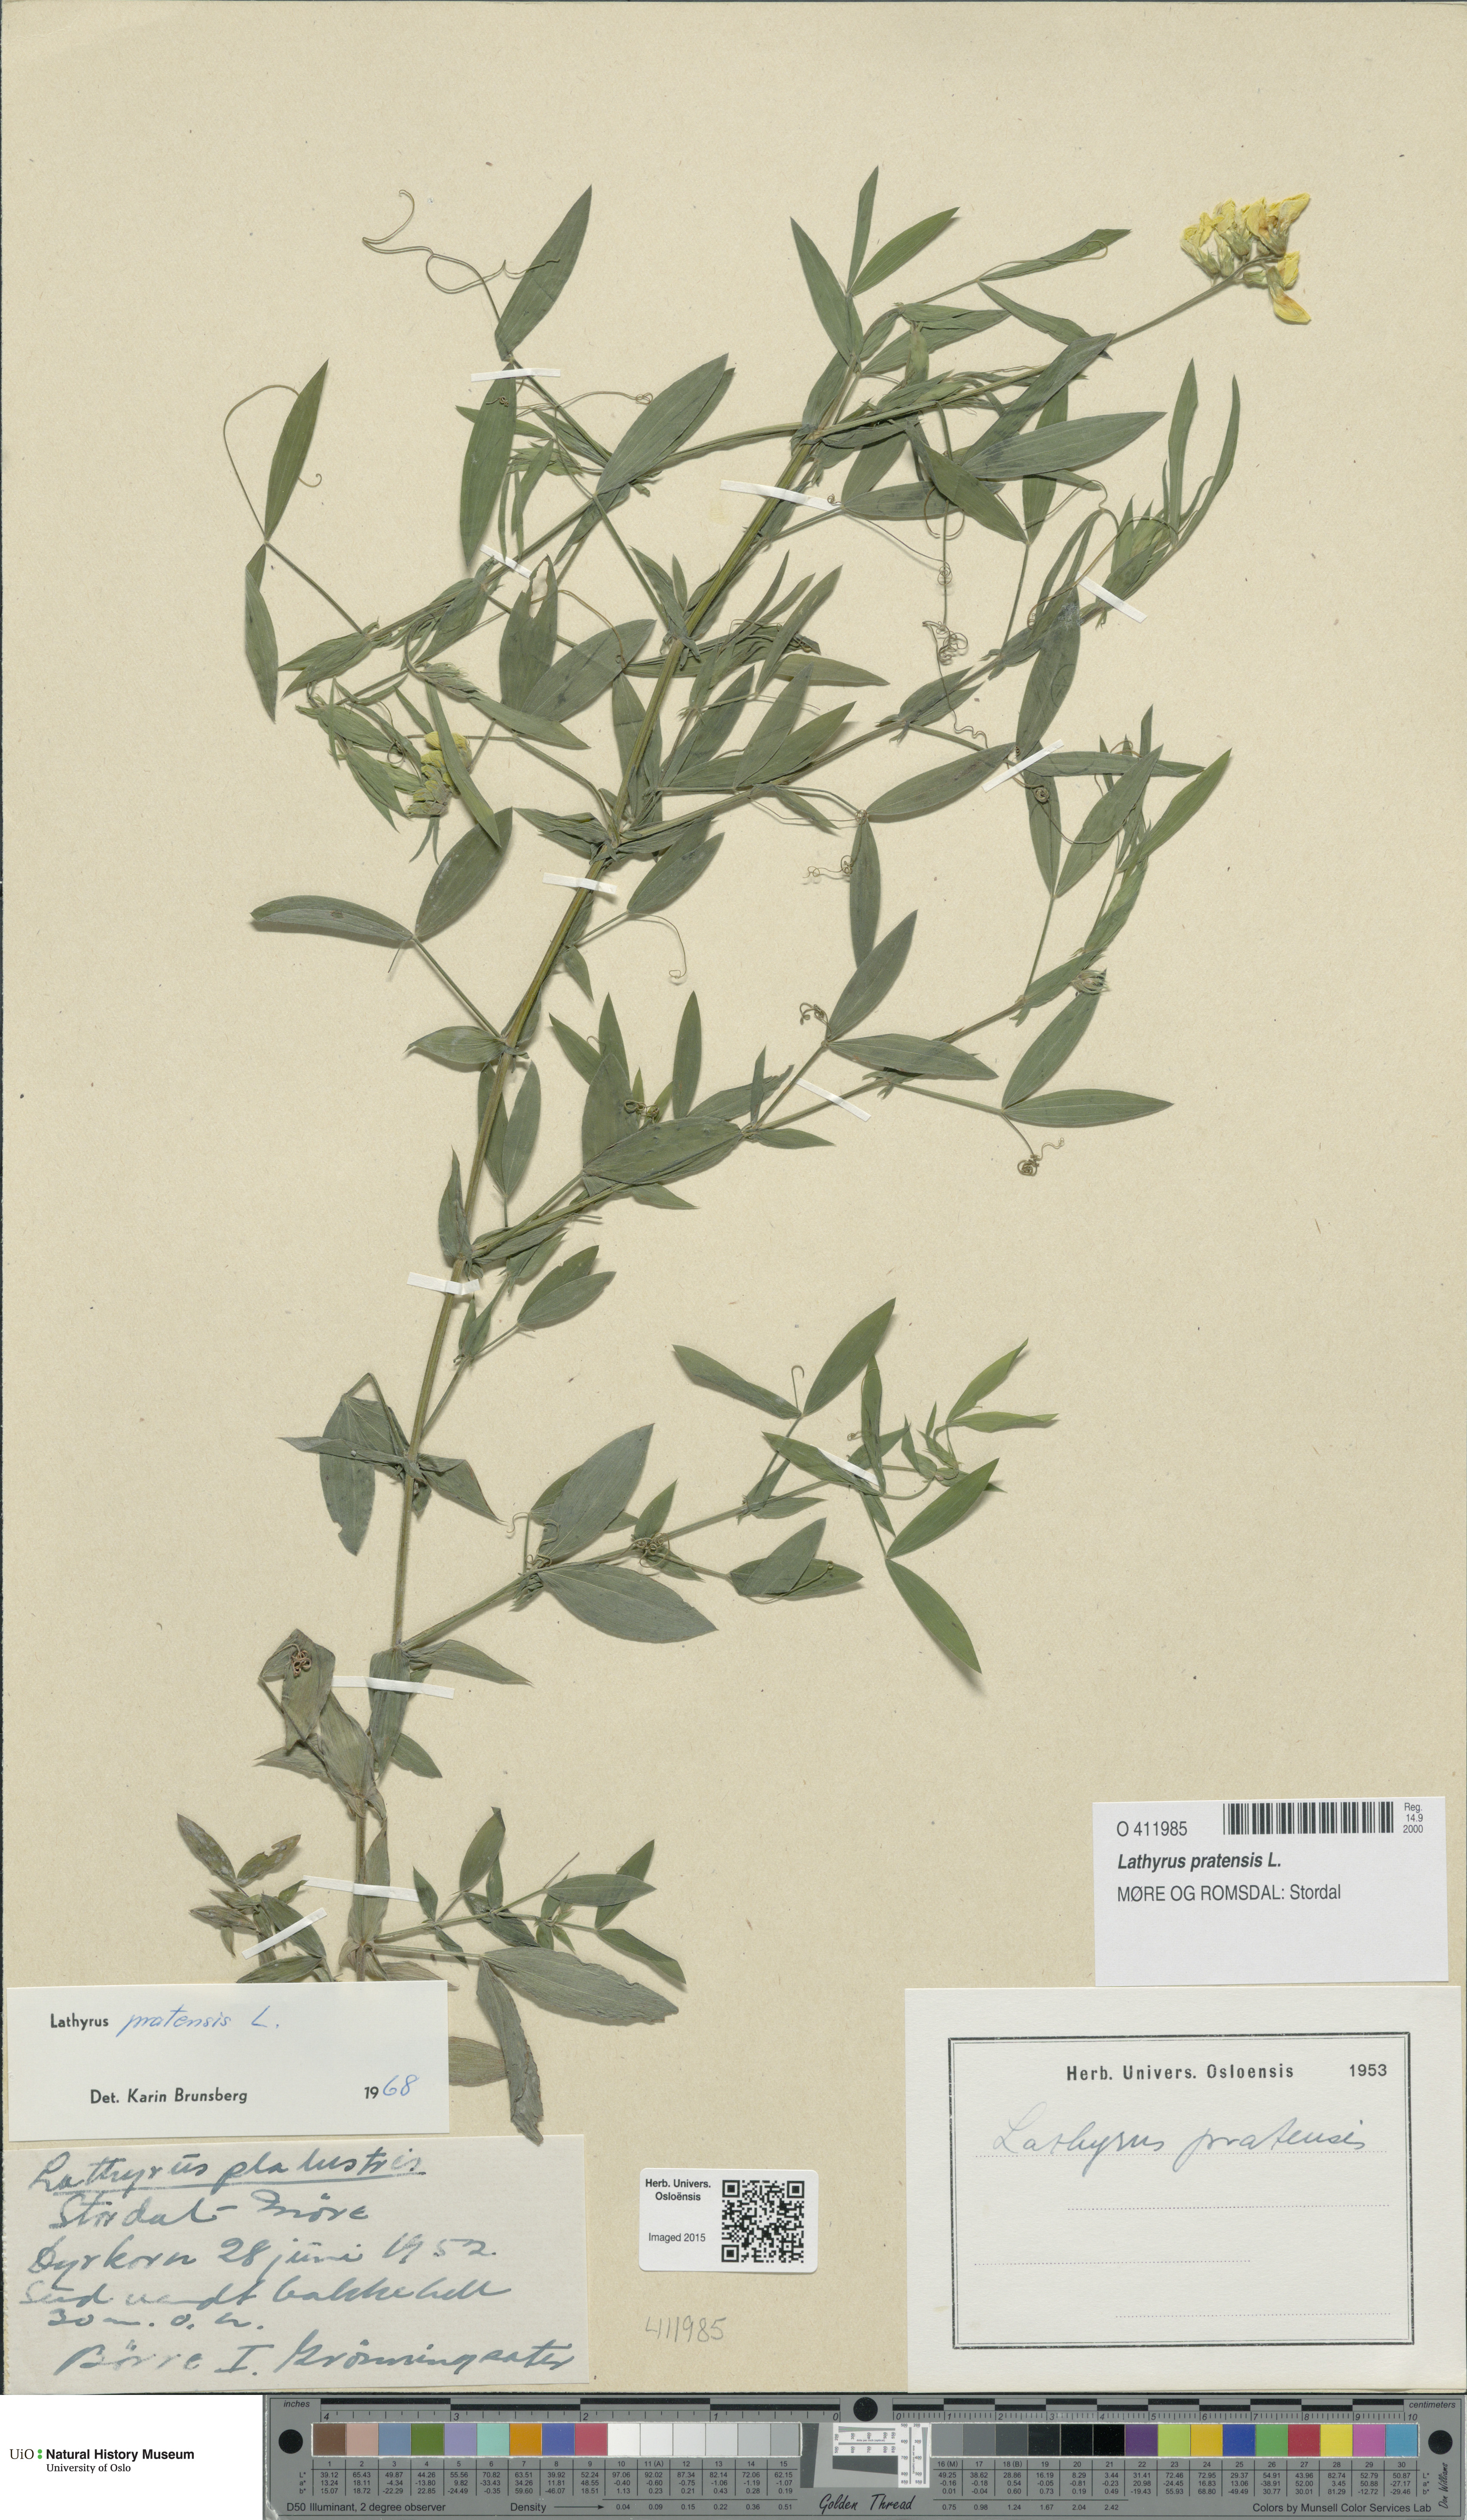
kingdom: Plantae
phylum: Tracheophyta
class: Magnoliopsida
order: Fabales
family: Fabaceae
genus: Lathyrus
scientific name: Lathyrus pratensis
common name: Meadow vetchling
